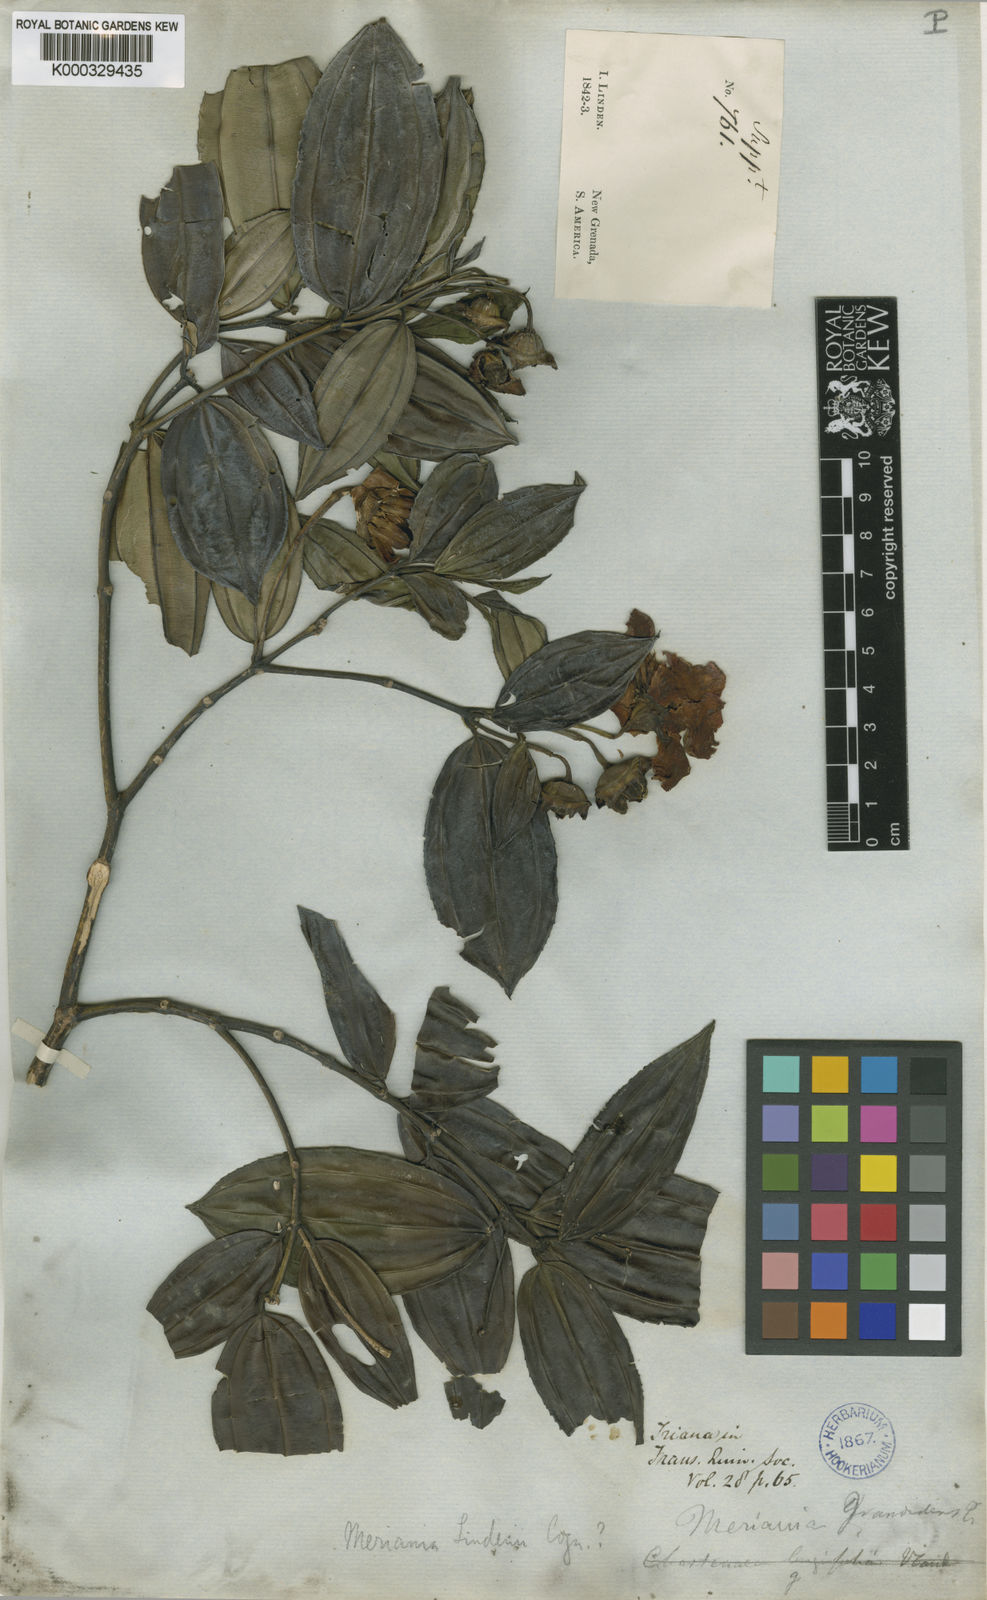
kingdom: Plantae
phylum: Tracheophyta
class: Magnoliopsida
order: Myrtales
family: Melastomataceae
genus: Meriania
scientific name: Meriania speciosa
